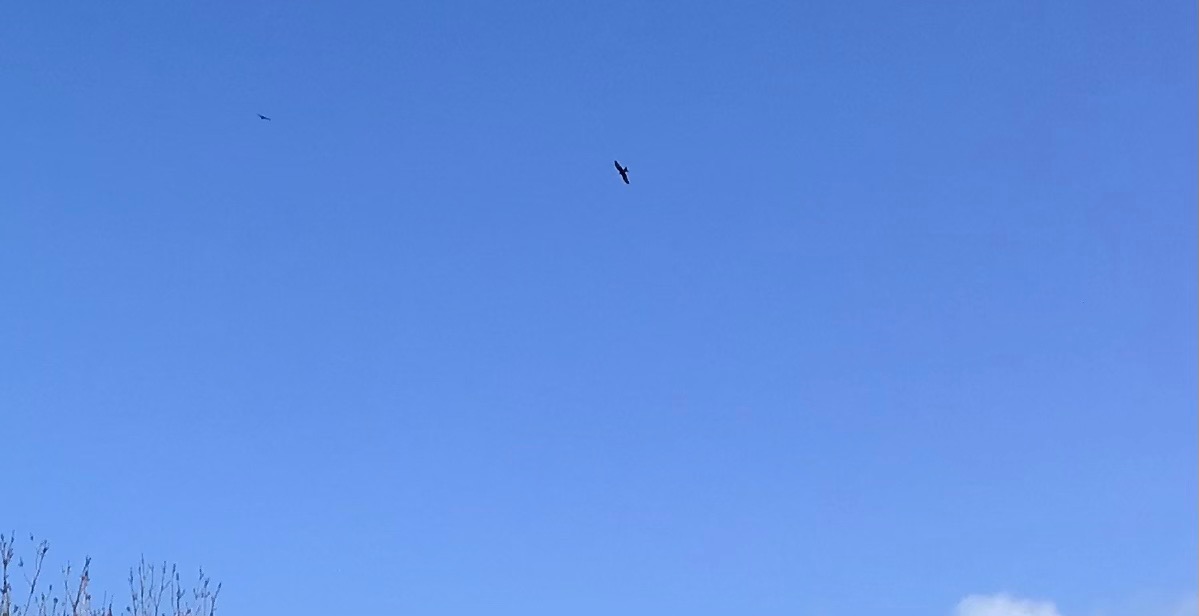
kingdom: Animalia
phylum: Chordata
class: Aves
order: Accipitriformes
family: Accipitridae
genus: Milvus
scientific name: Milvus milvus
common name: Rød glente
